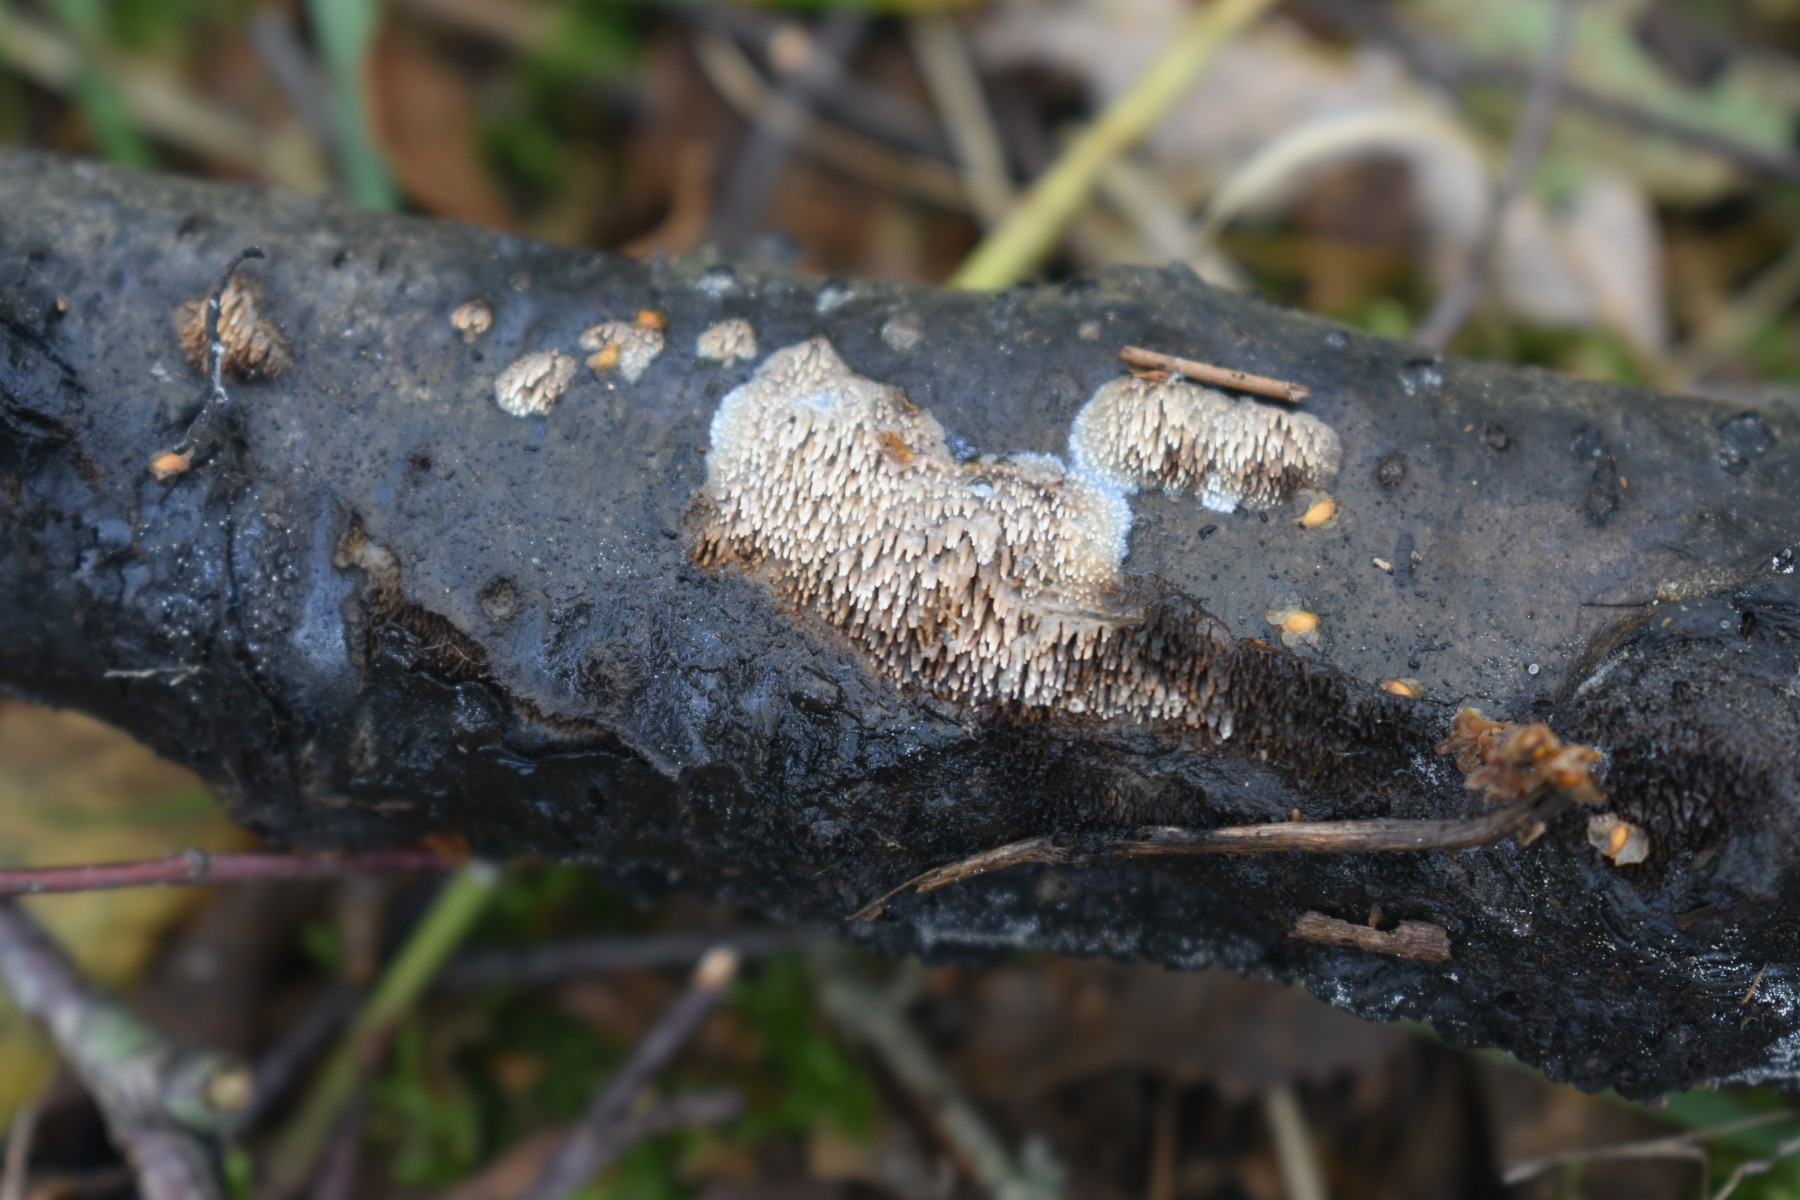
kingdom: Fungi
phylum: Basidiomycota
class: Agaricomycetes
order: Polyporales
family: Meruliaceae
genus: Mycoacia
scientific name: Mycoacia fuscoatra
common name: mørk vokspig
